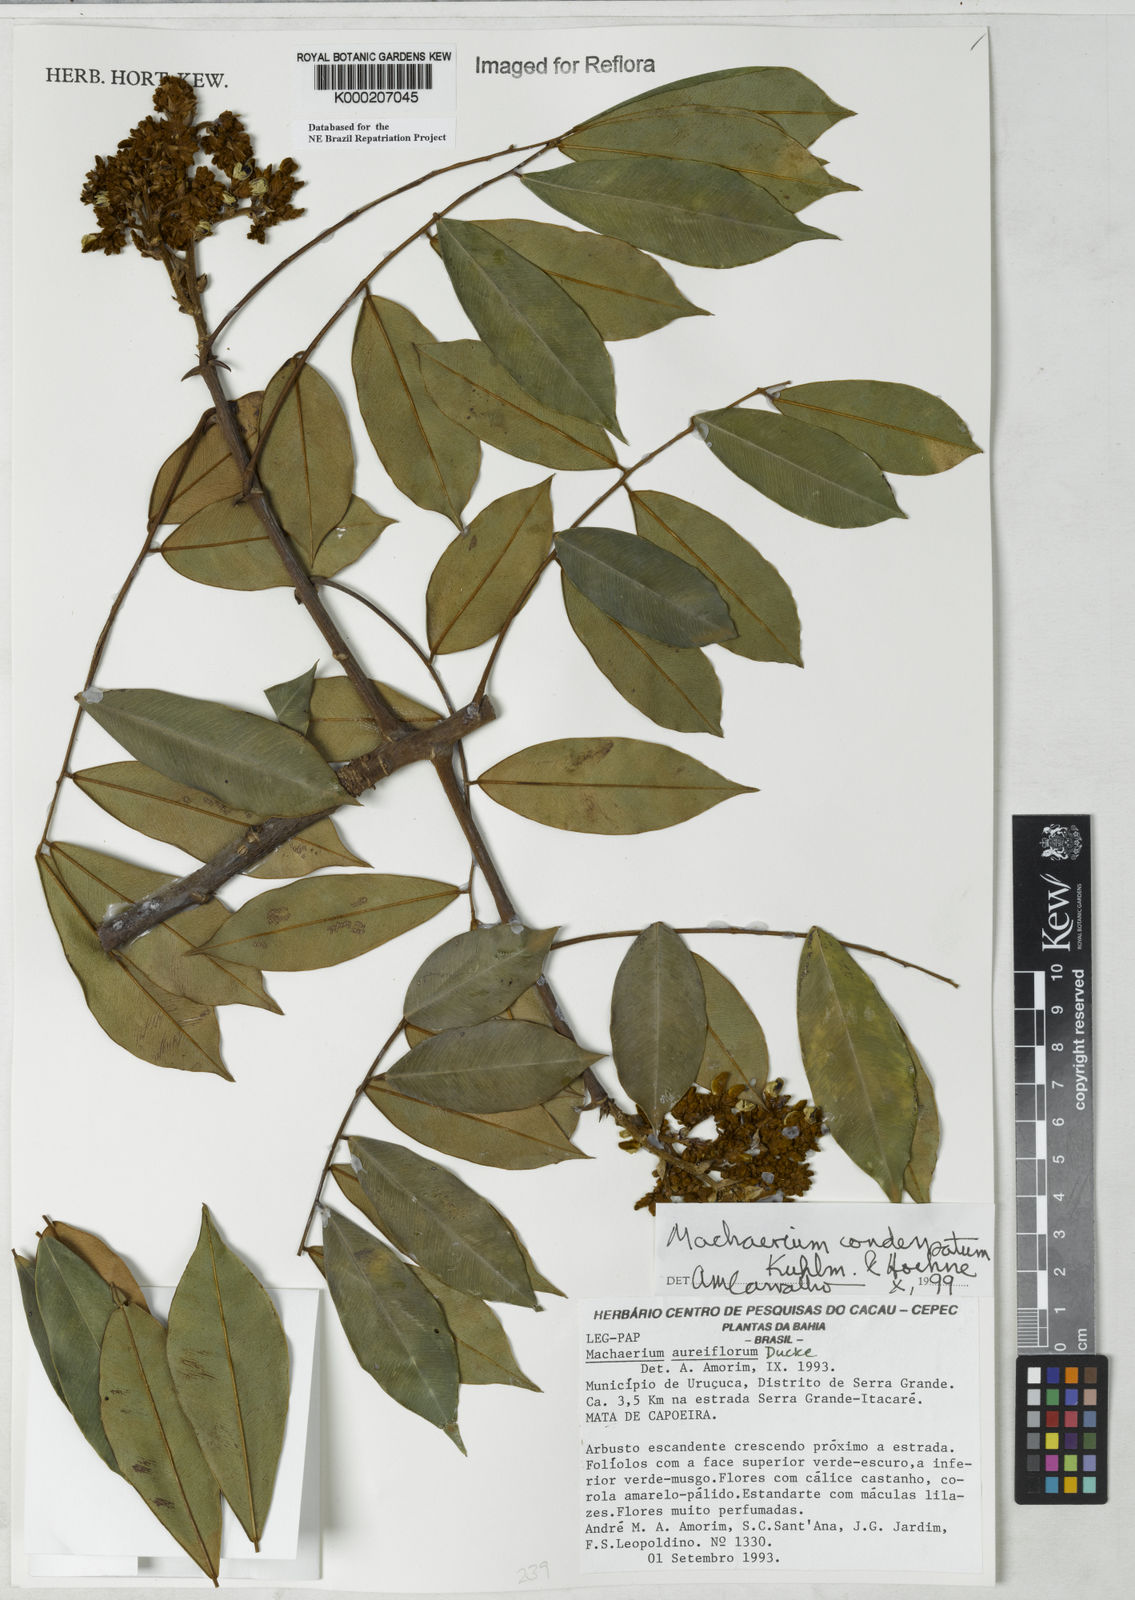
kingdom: Plantae
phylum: Tracheophyta
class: Magnoliopsida
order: Fabales
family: Fabaceae
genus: Machaerium
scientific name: Machaerium condensatum
